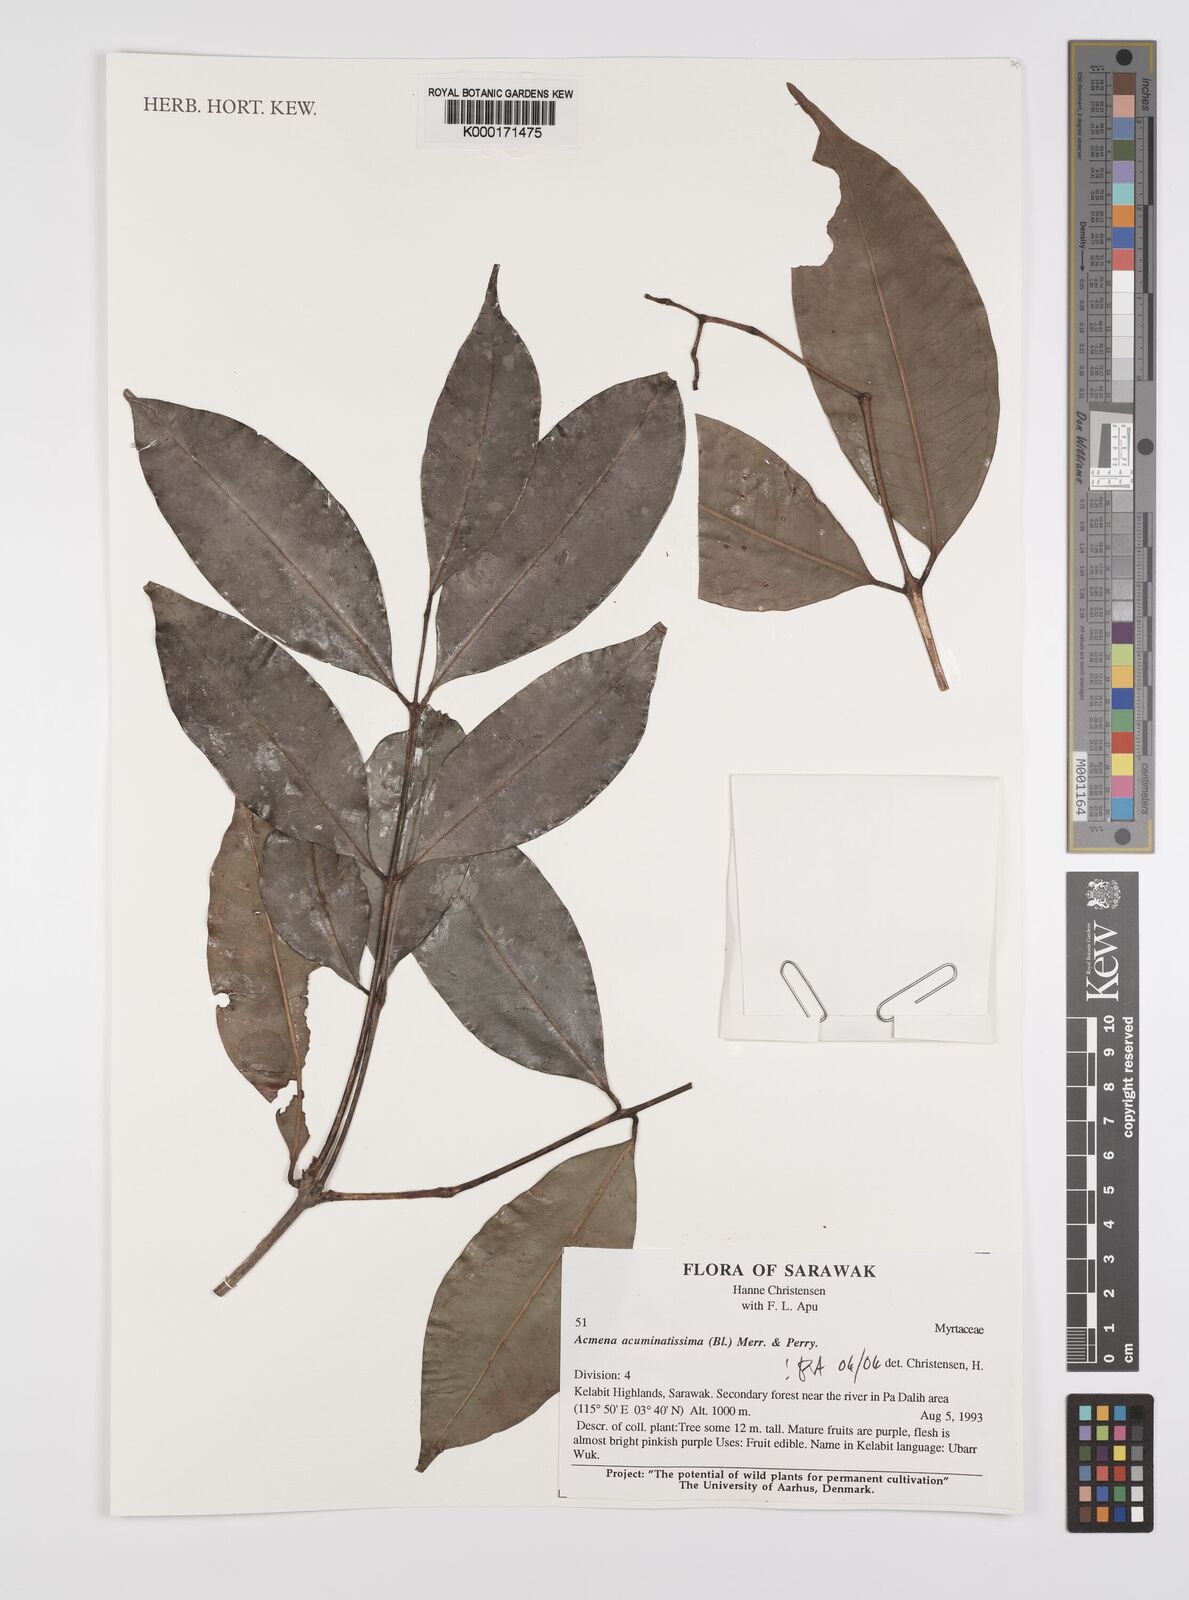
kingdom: Plantae
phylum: Tracheophyta
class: Magnoliopsida
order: Myrtales
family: Myrtaceae
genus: Syzygium
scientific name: Syzygium acuminatissimum
